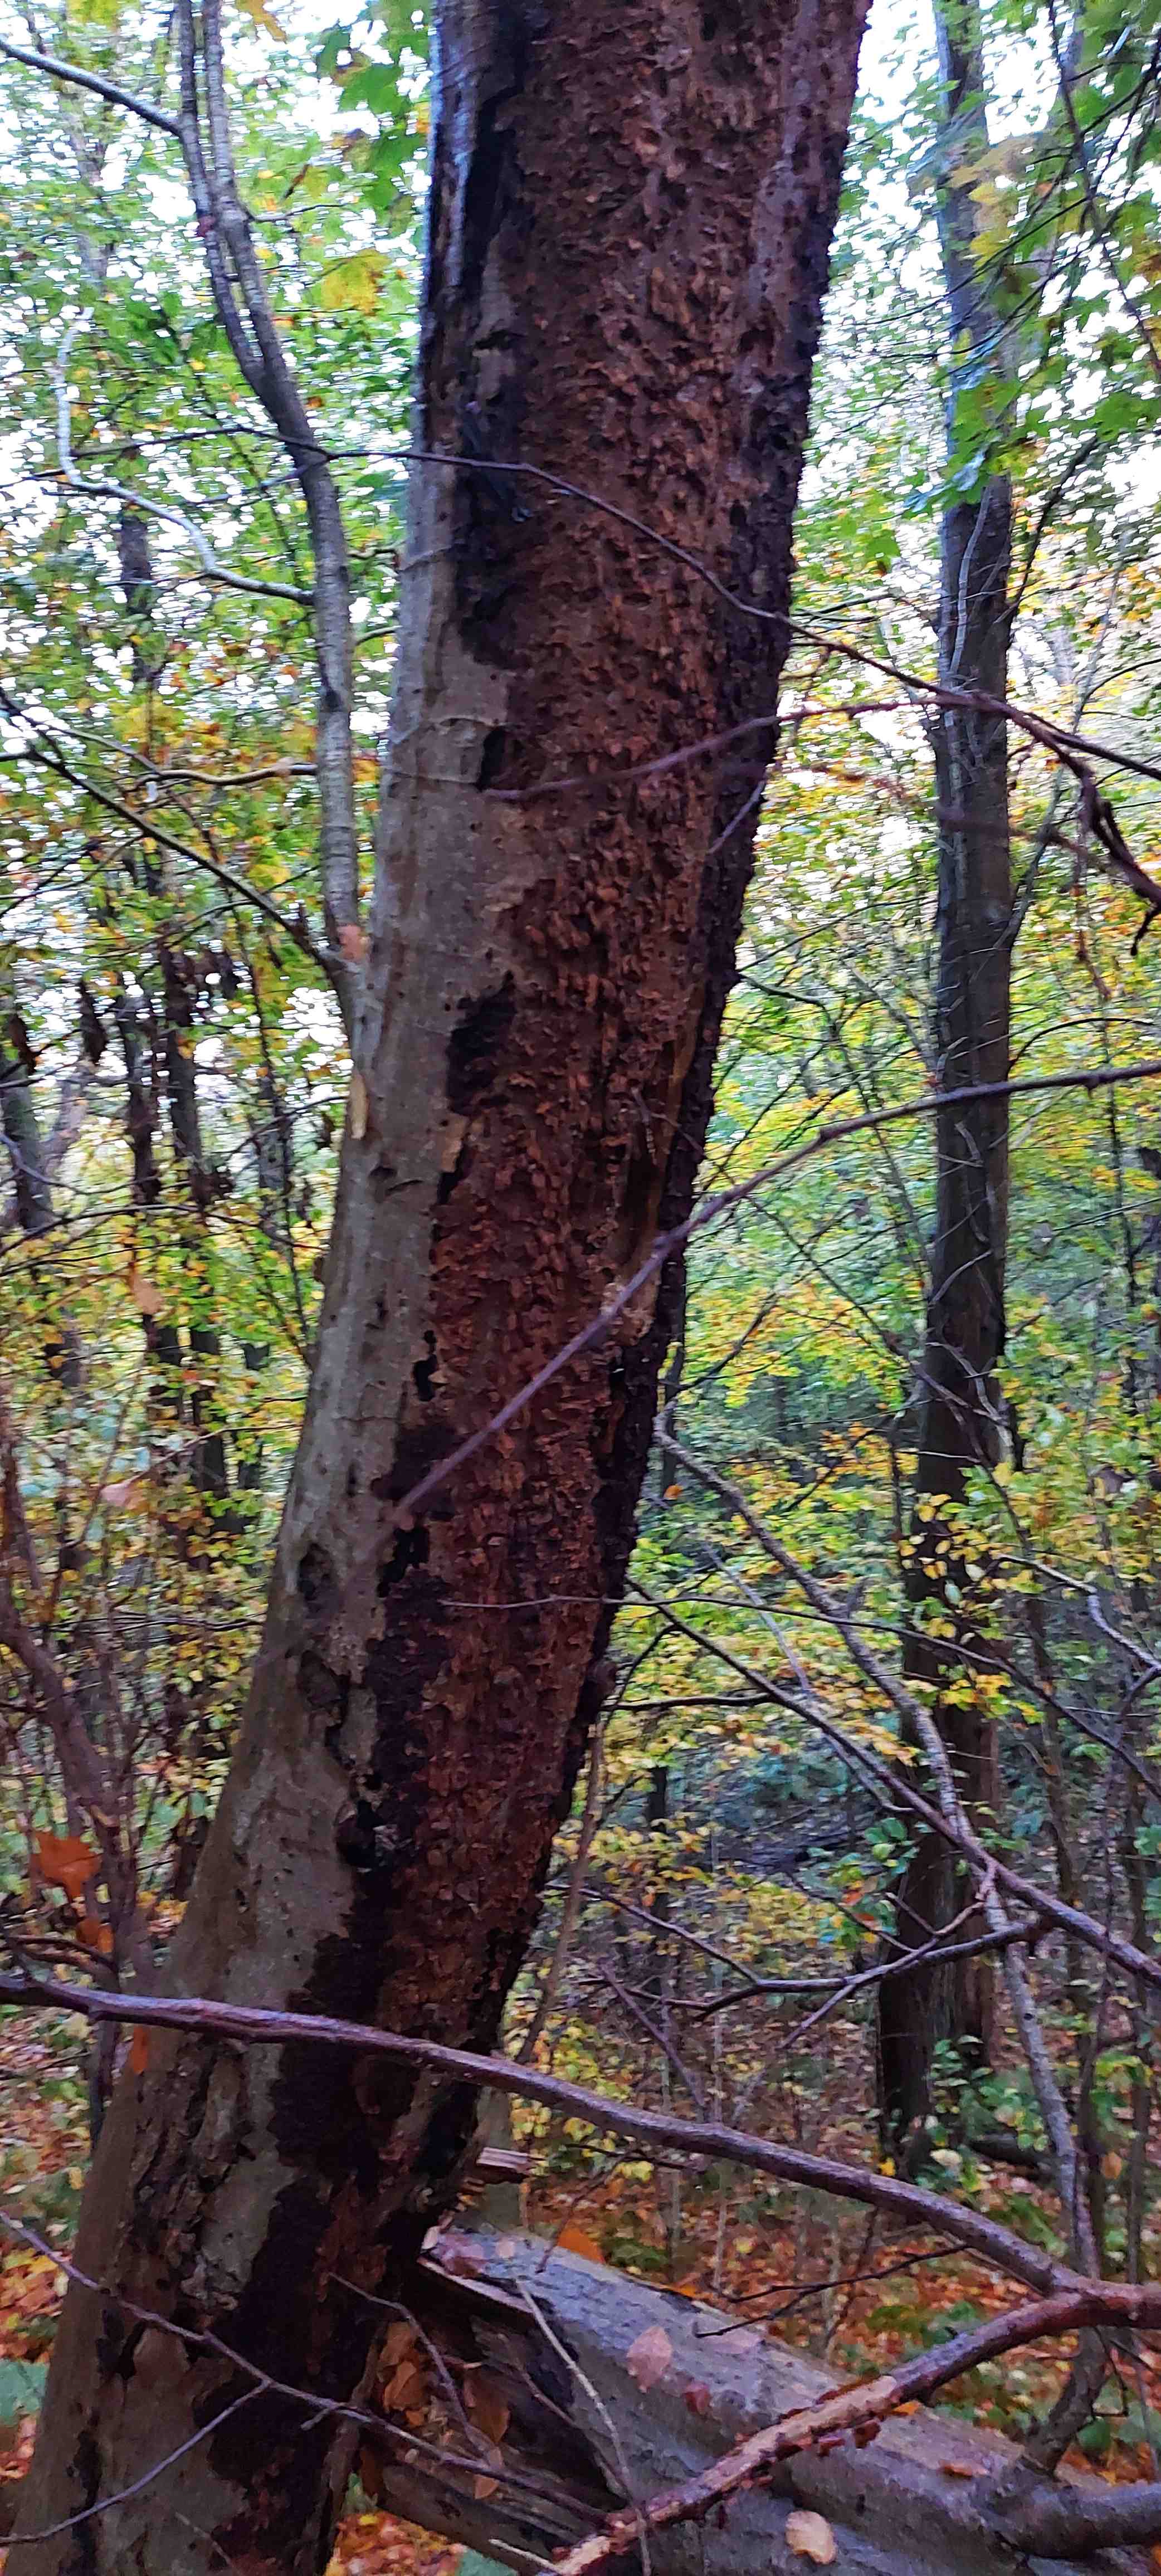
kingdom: Fungi
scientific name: Fungi
